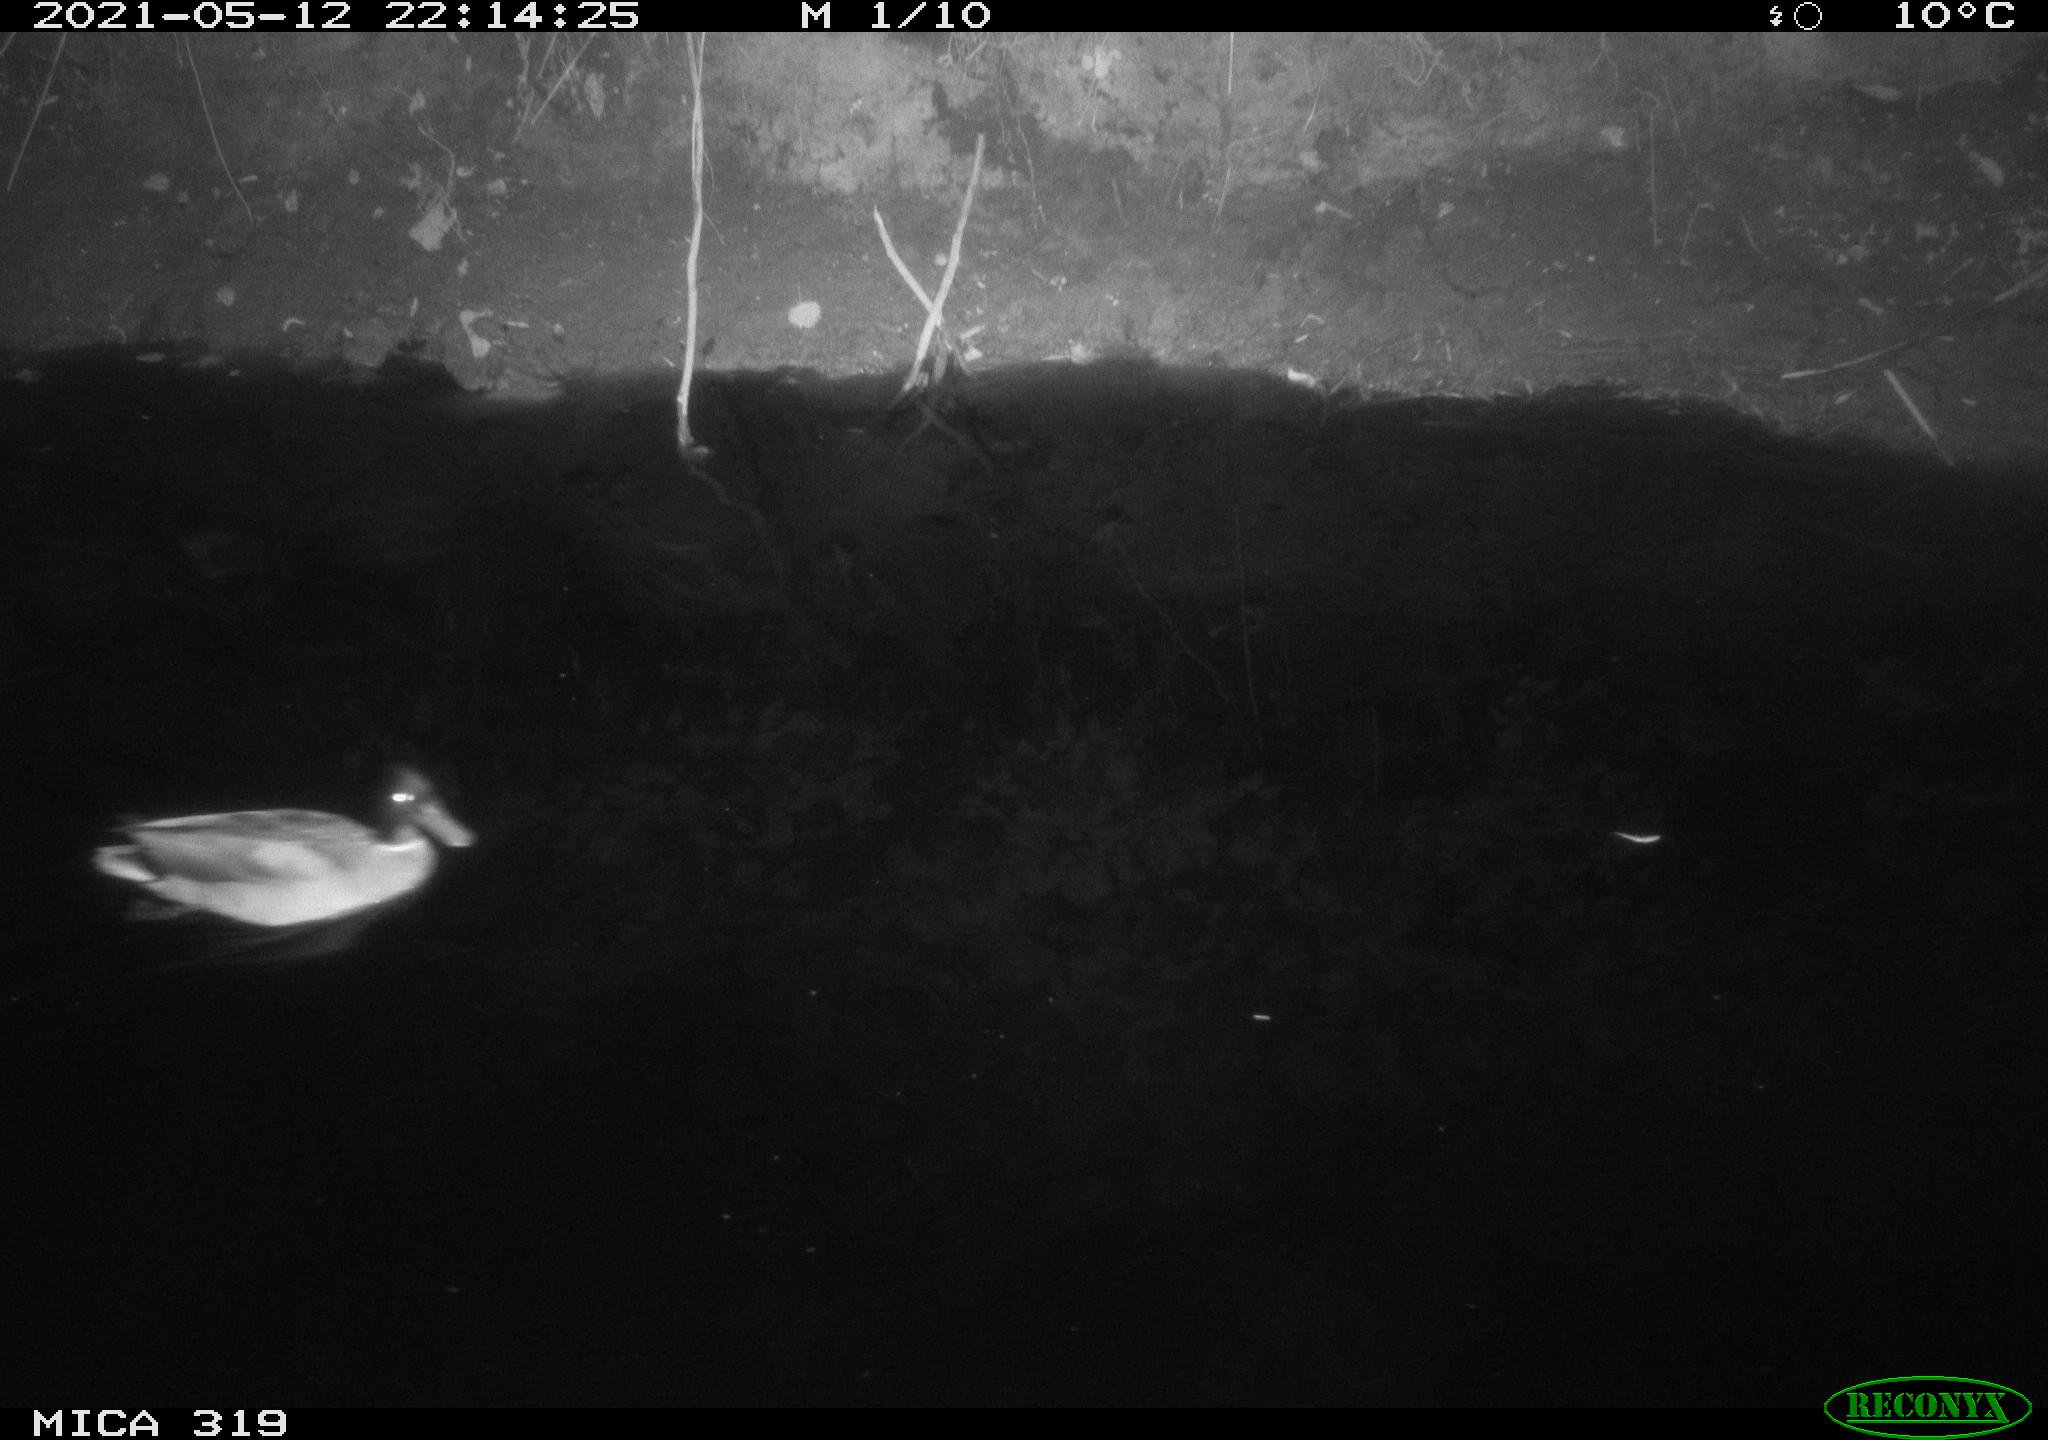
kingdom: Animalia
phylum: Chordata
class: Aves
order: Anseriformes
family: Anatidae
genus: Anas
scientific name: Anas platyrhynchos
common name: Mallard
